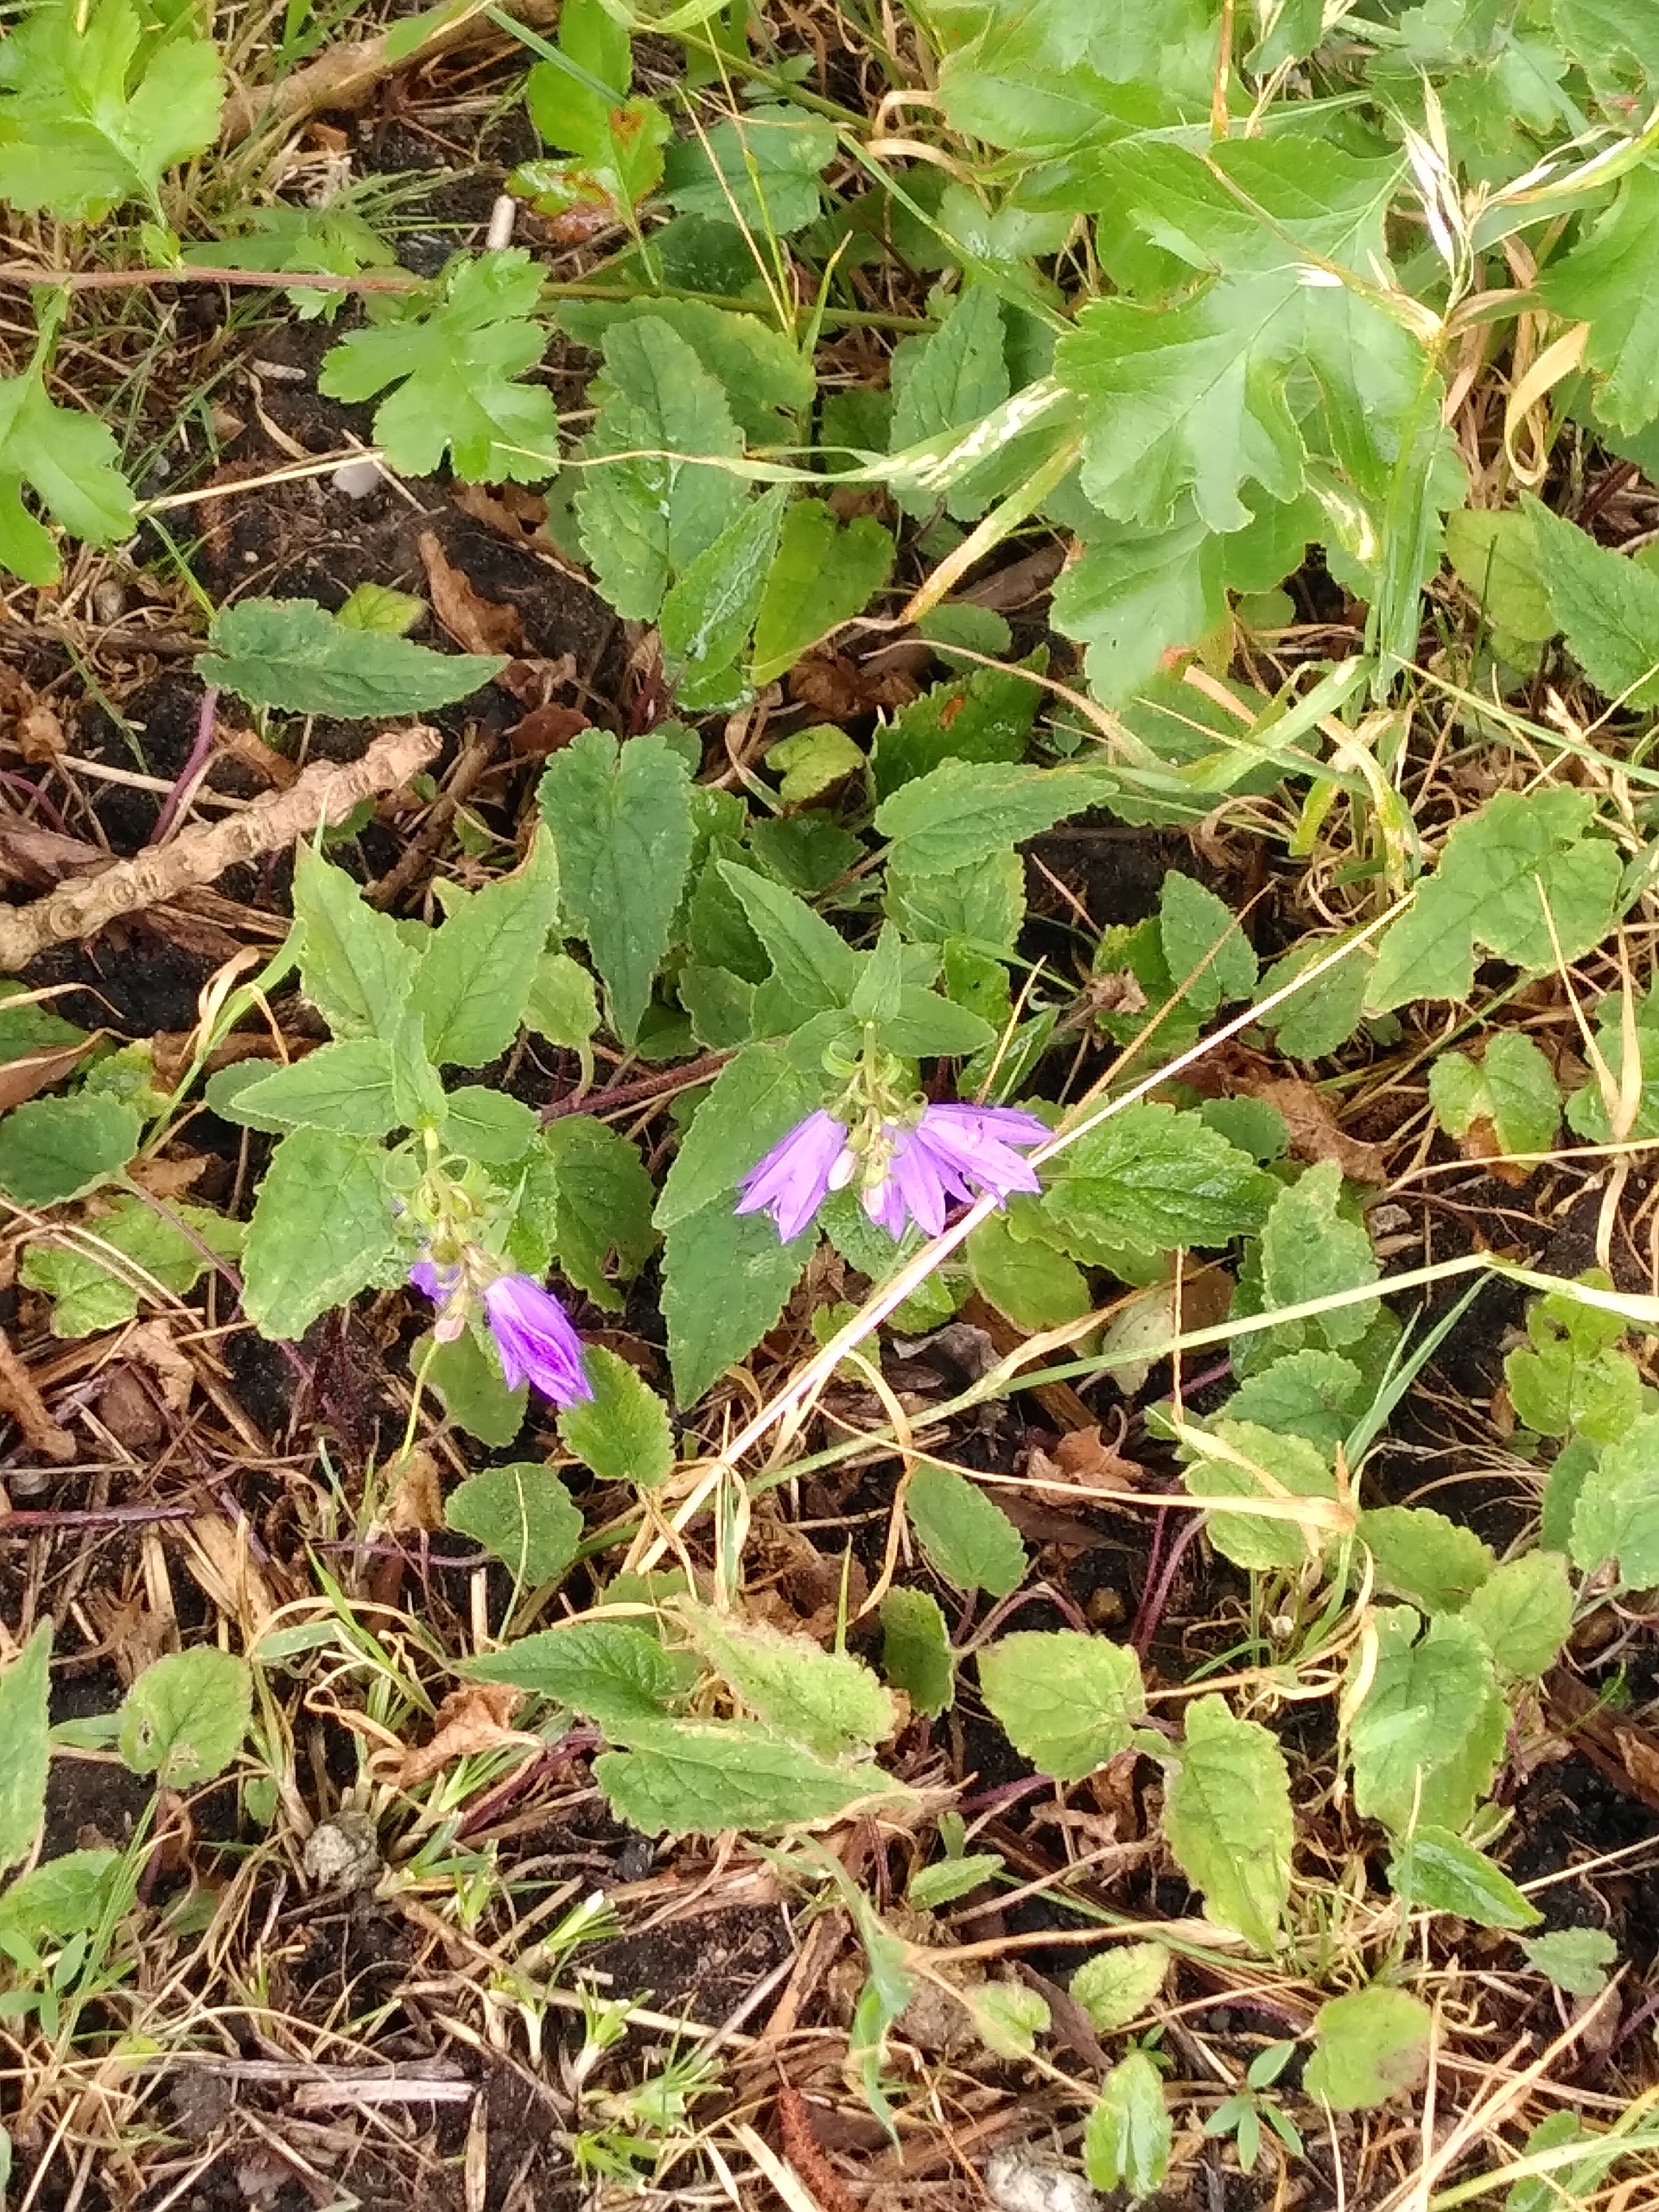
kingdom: Plantae
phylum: Tracheophyta
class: Magnoliopsida
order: Asterales
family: Campanulaceae
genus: Campanula
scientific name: Campanula rapunculoides
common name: Ensidig klokke
